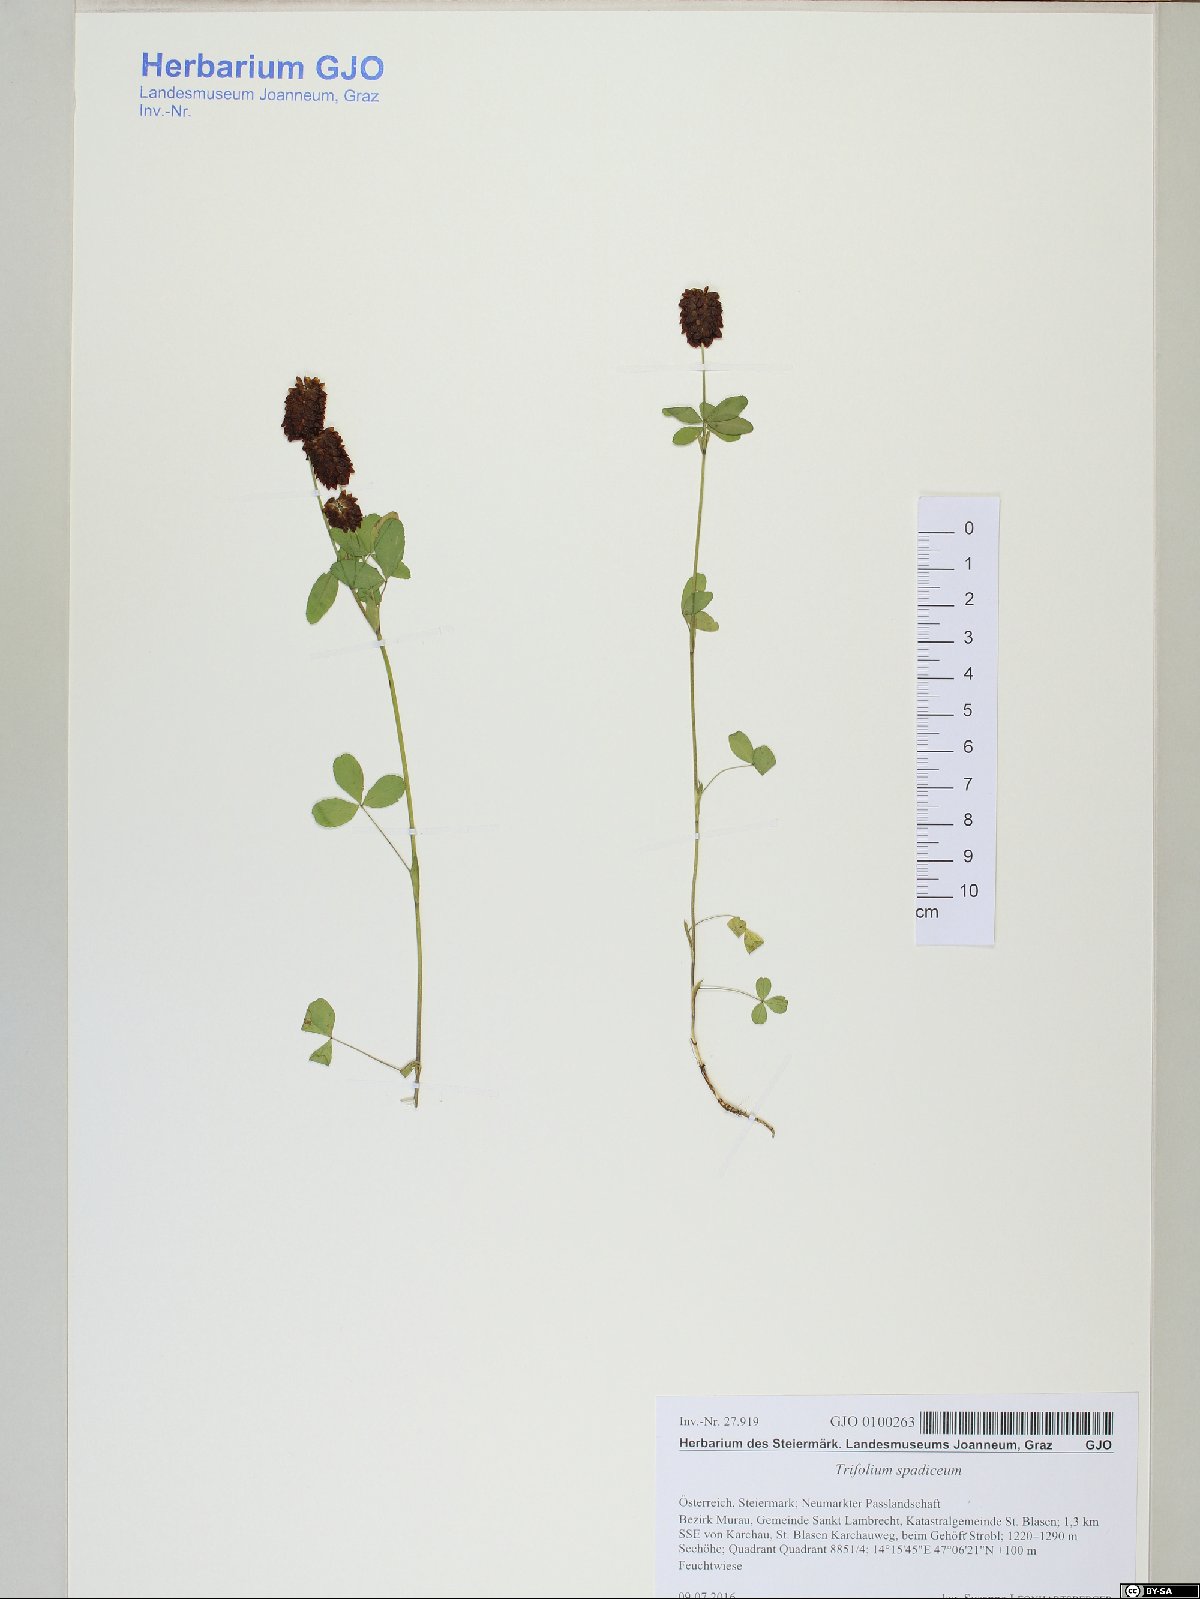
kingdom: Plantae
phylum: Tracheophyta
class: Magnoliopsida
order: Fabales
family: Fabaceae
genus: Trifolium
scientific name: Trifolium spadiceum
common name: Brown moor clover
